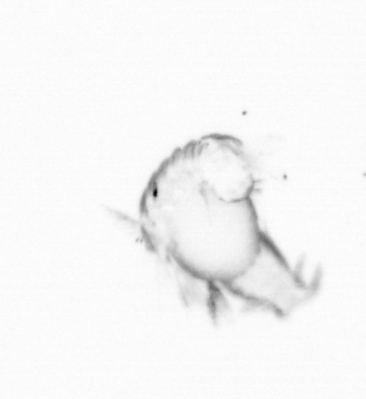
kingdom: Animalia
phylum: Annelida
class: Polychaeta
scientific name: Polychaeta
